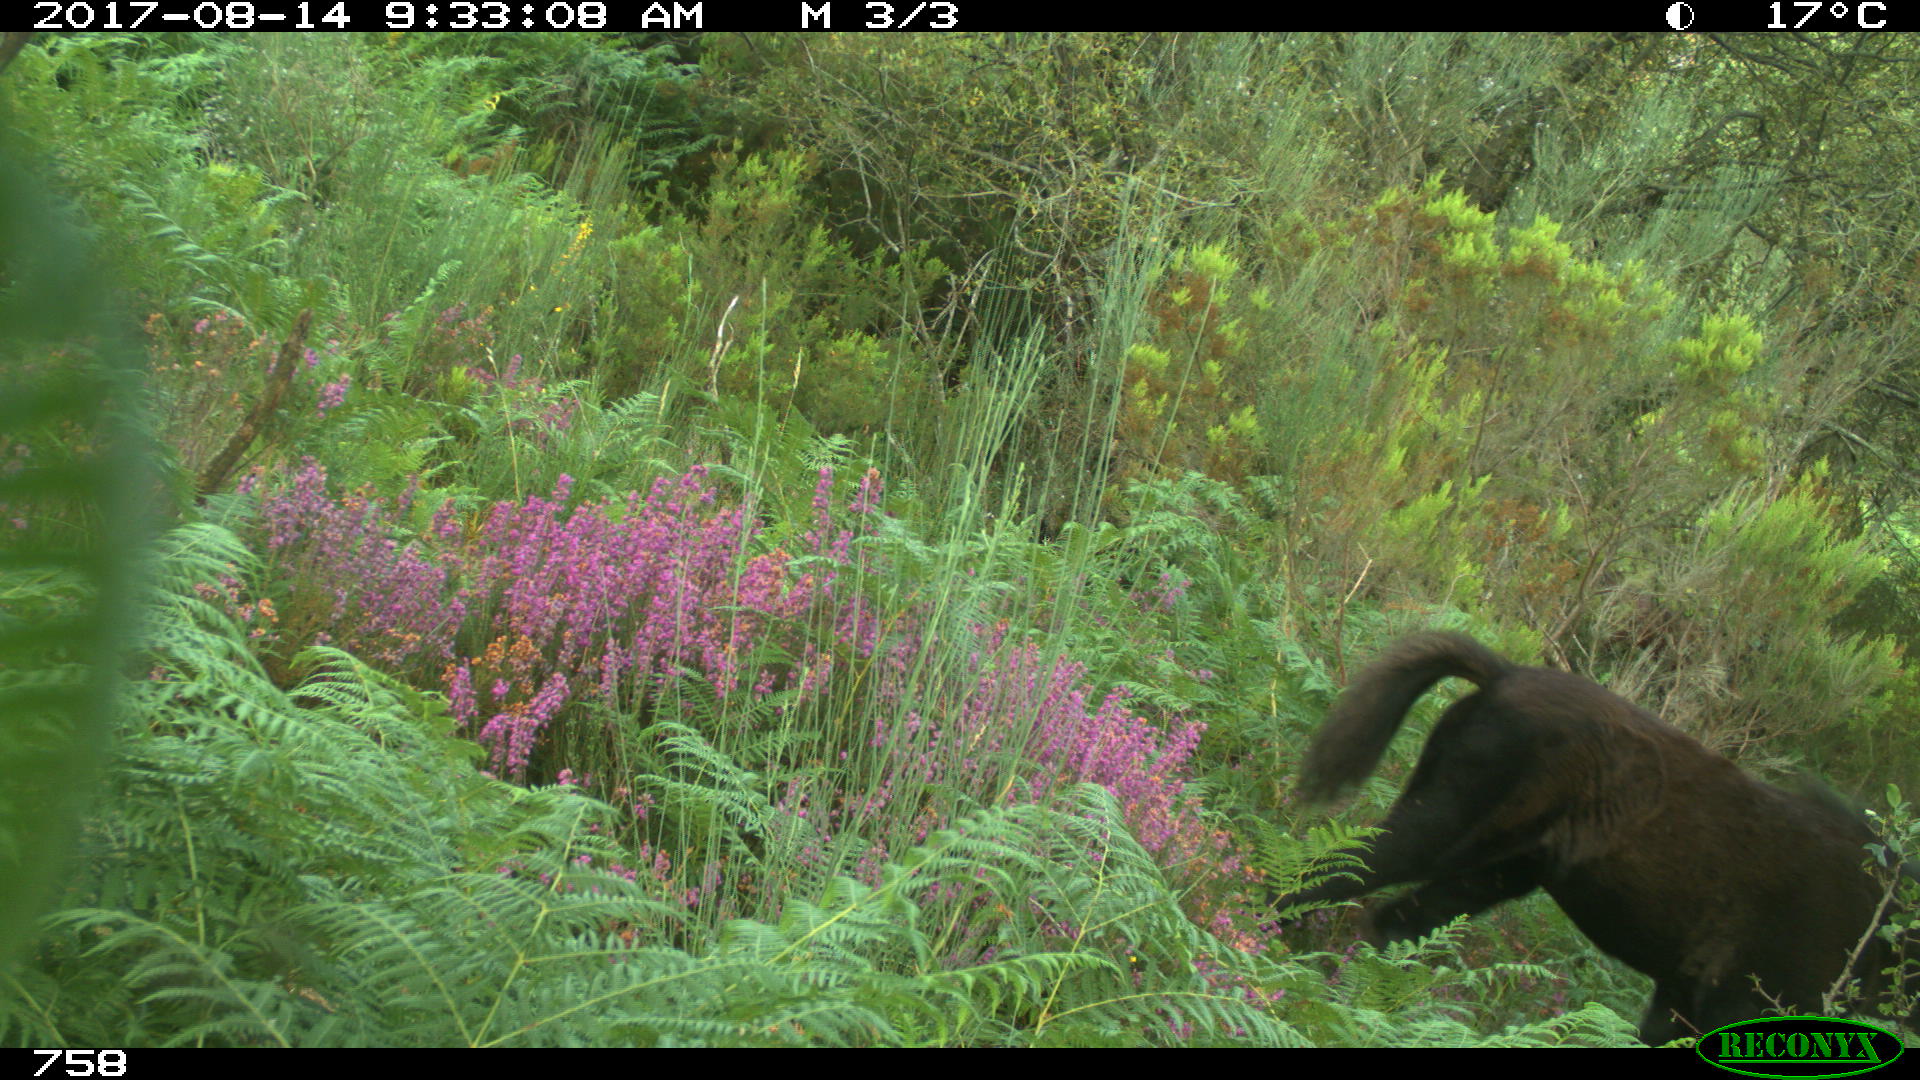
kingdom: Animalia
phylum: Chordata
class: Mammalia
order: Perissodactyla
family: Equidae
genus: Equus
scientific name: Equus caballus
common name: Horse
